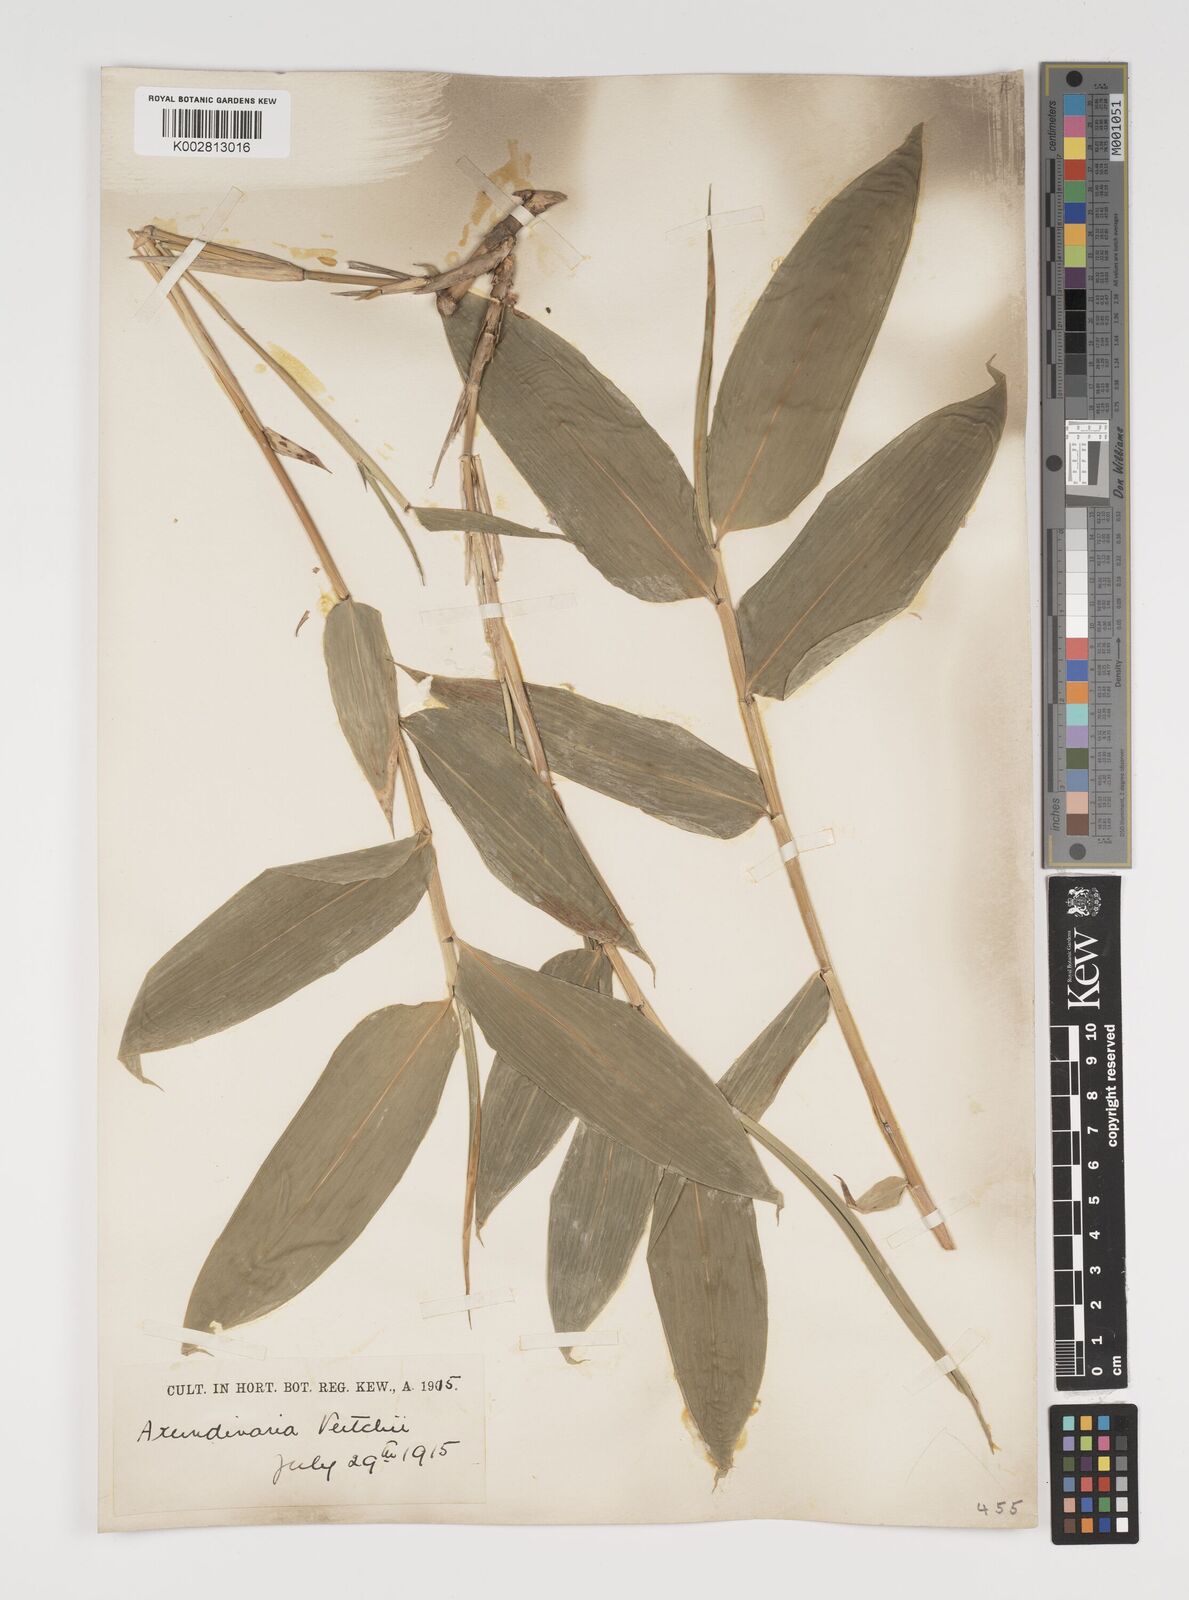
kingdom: Plantae
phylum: Tracheophyta
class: Liliopsida
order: Poales
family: Poaceae
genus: Sasa
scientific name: Sasa veitchii
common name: Veitch's bamboo
